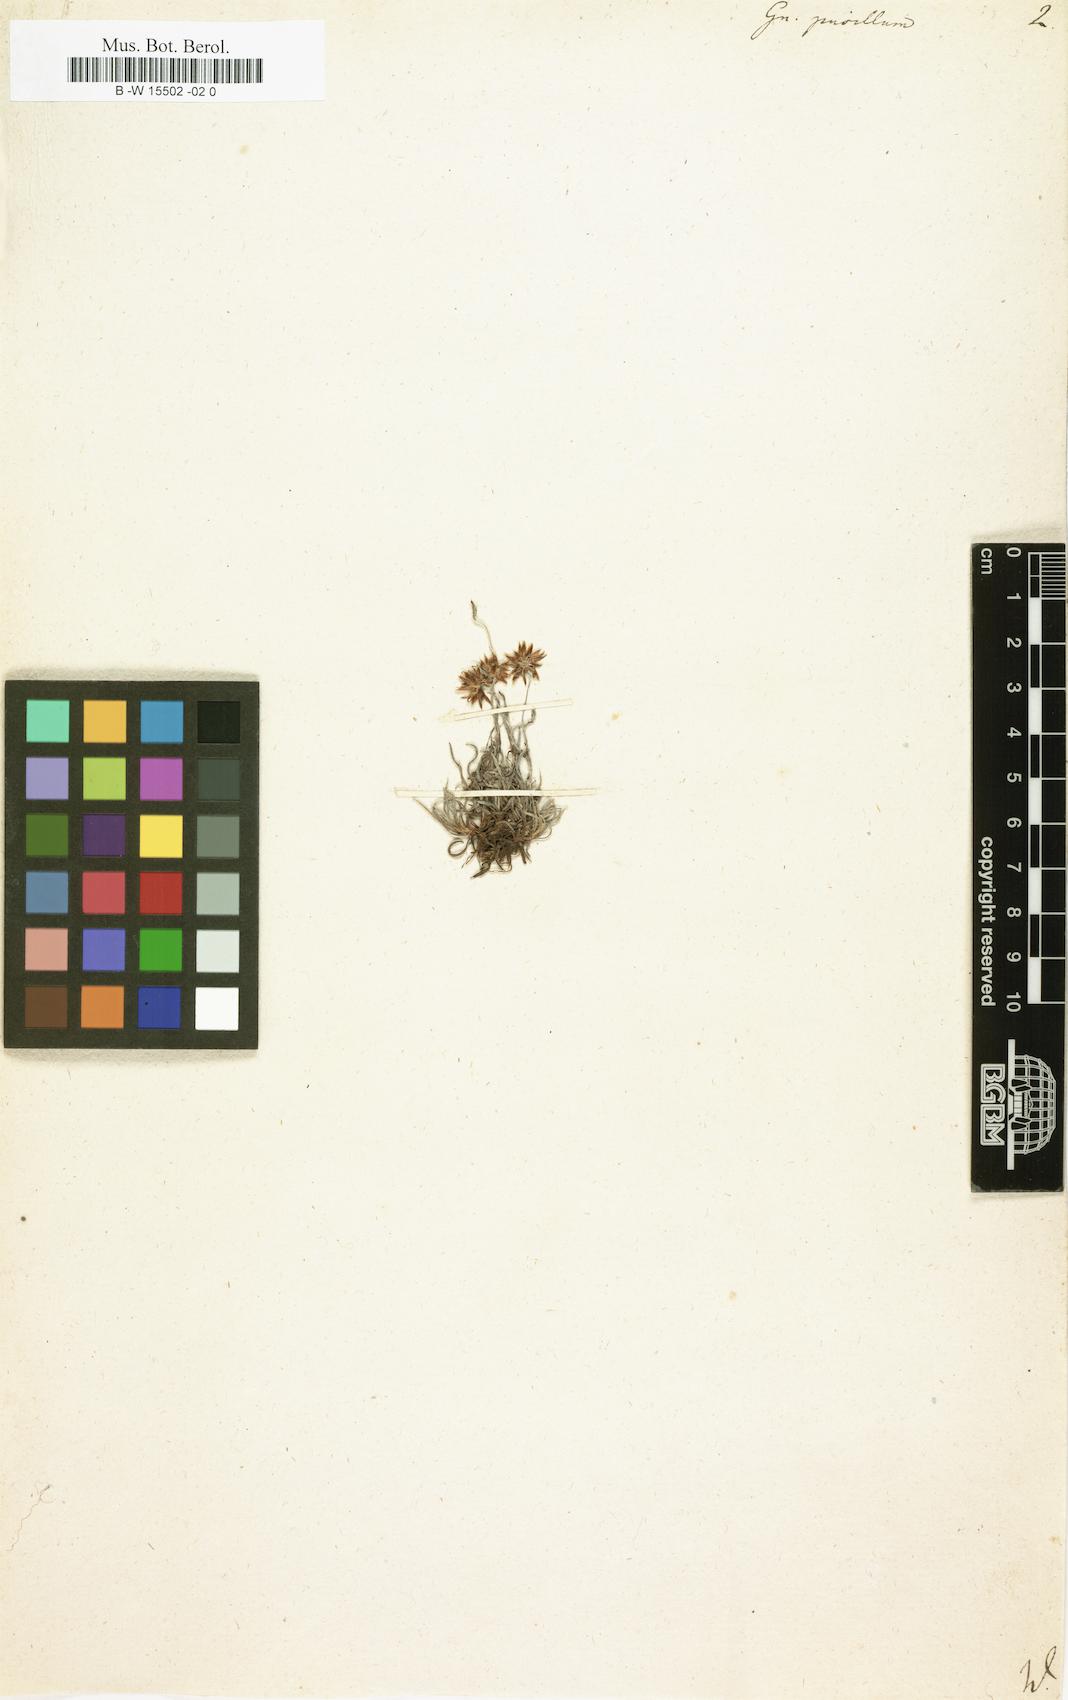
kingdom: Plantae
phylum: Tracheophyta
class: Magnoliopsida
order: Asterales
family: Asteraceae
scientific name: Asteraceae
